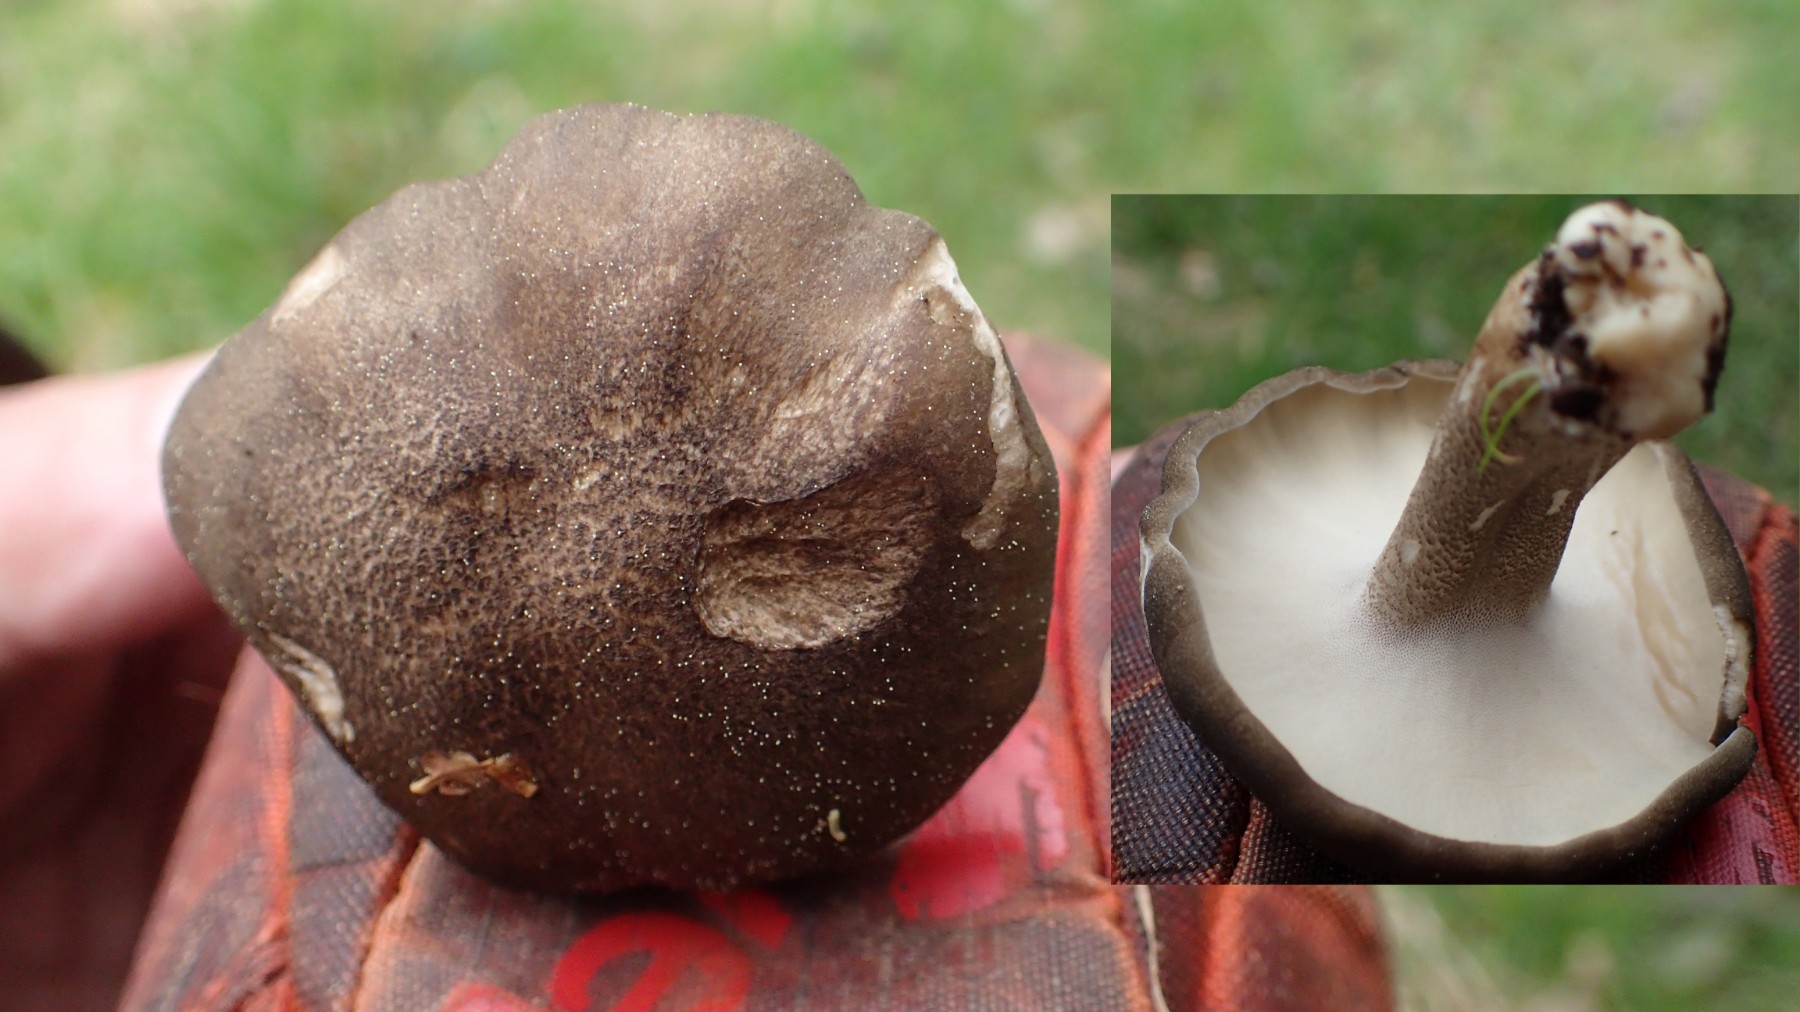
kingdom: Fungi
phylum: Basidiomycota
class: Agaricomycetes
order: Polyporales
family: Polyporaceae
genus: Lentinus
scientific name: Lentinus substrictus
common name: forårs-stilkporesvamp
